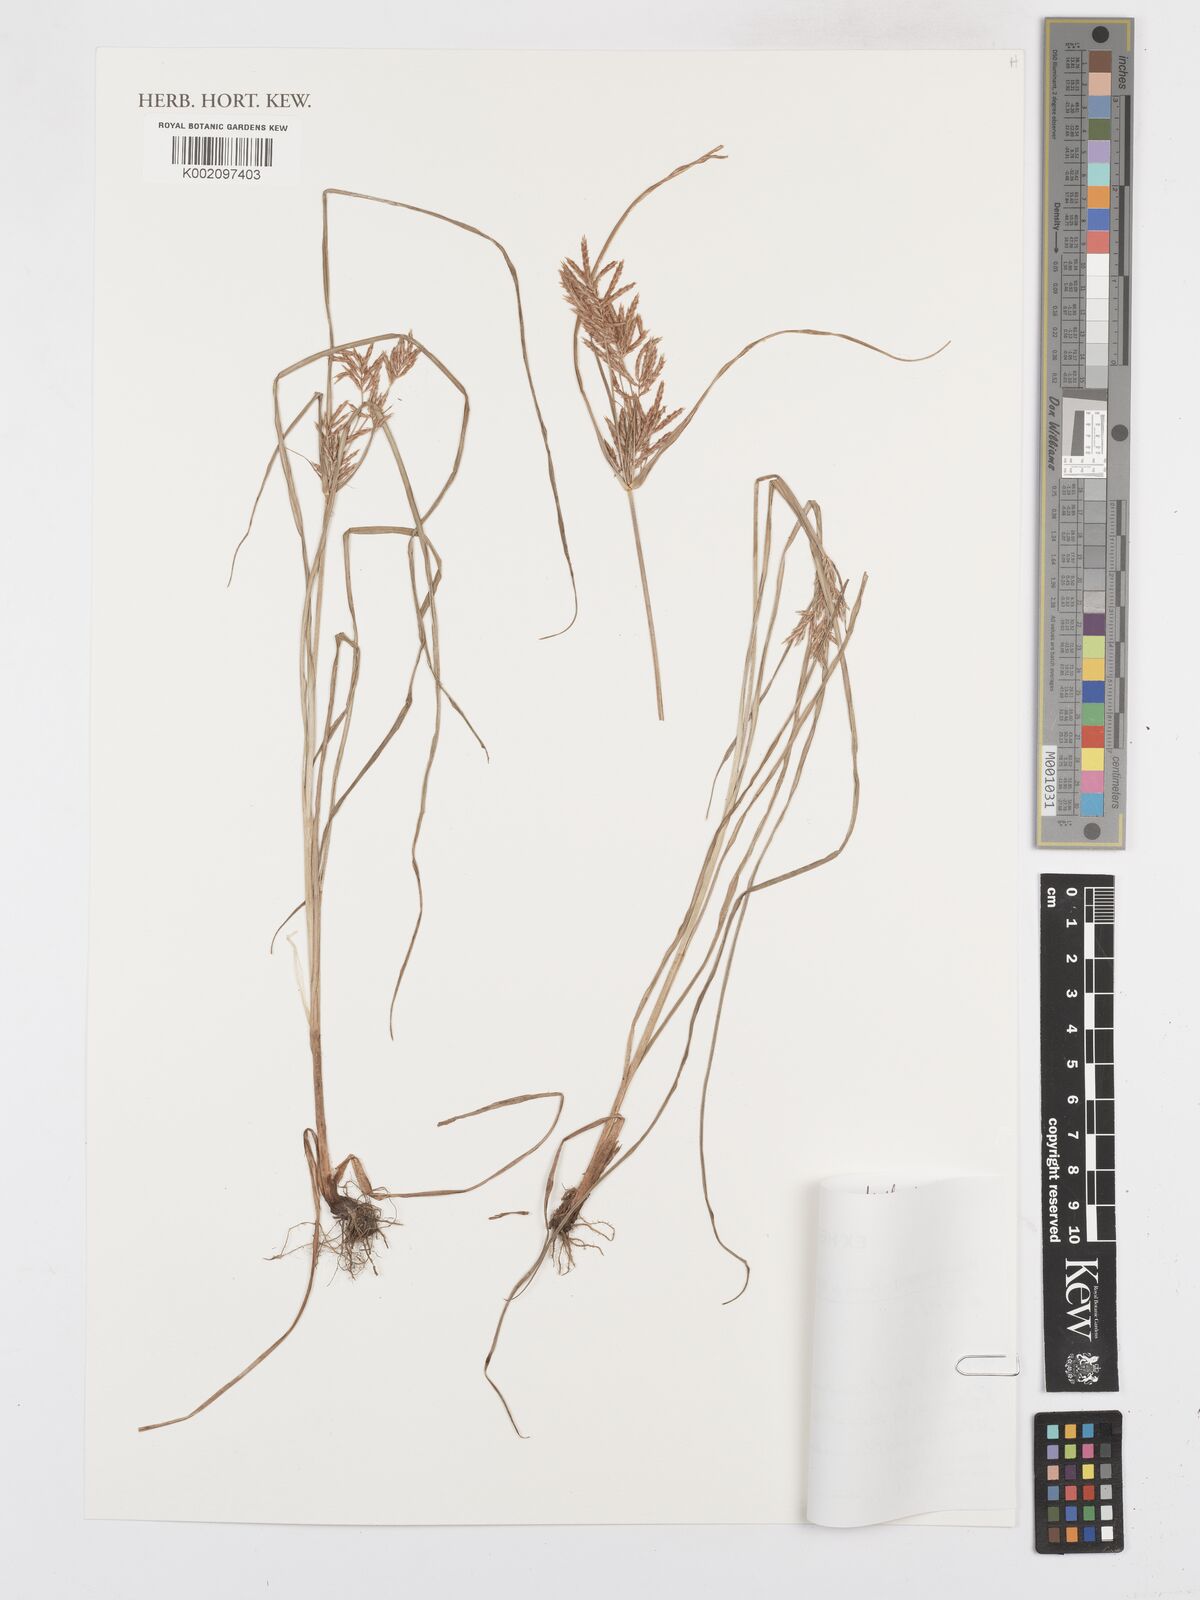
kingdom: Plantae
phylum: Tracheophyta
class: Liliopsida
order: Poales
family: Cyperaceae
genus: Carex
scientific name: Carex
